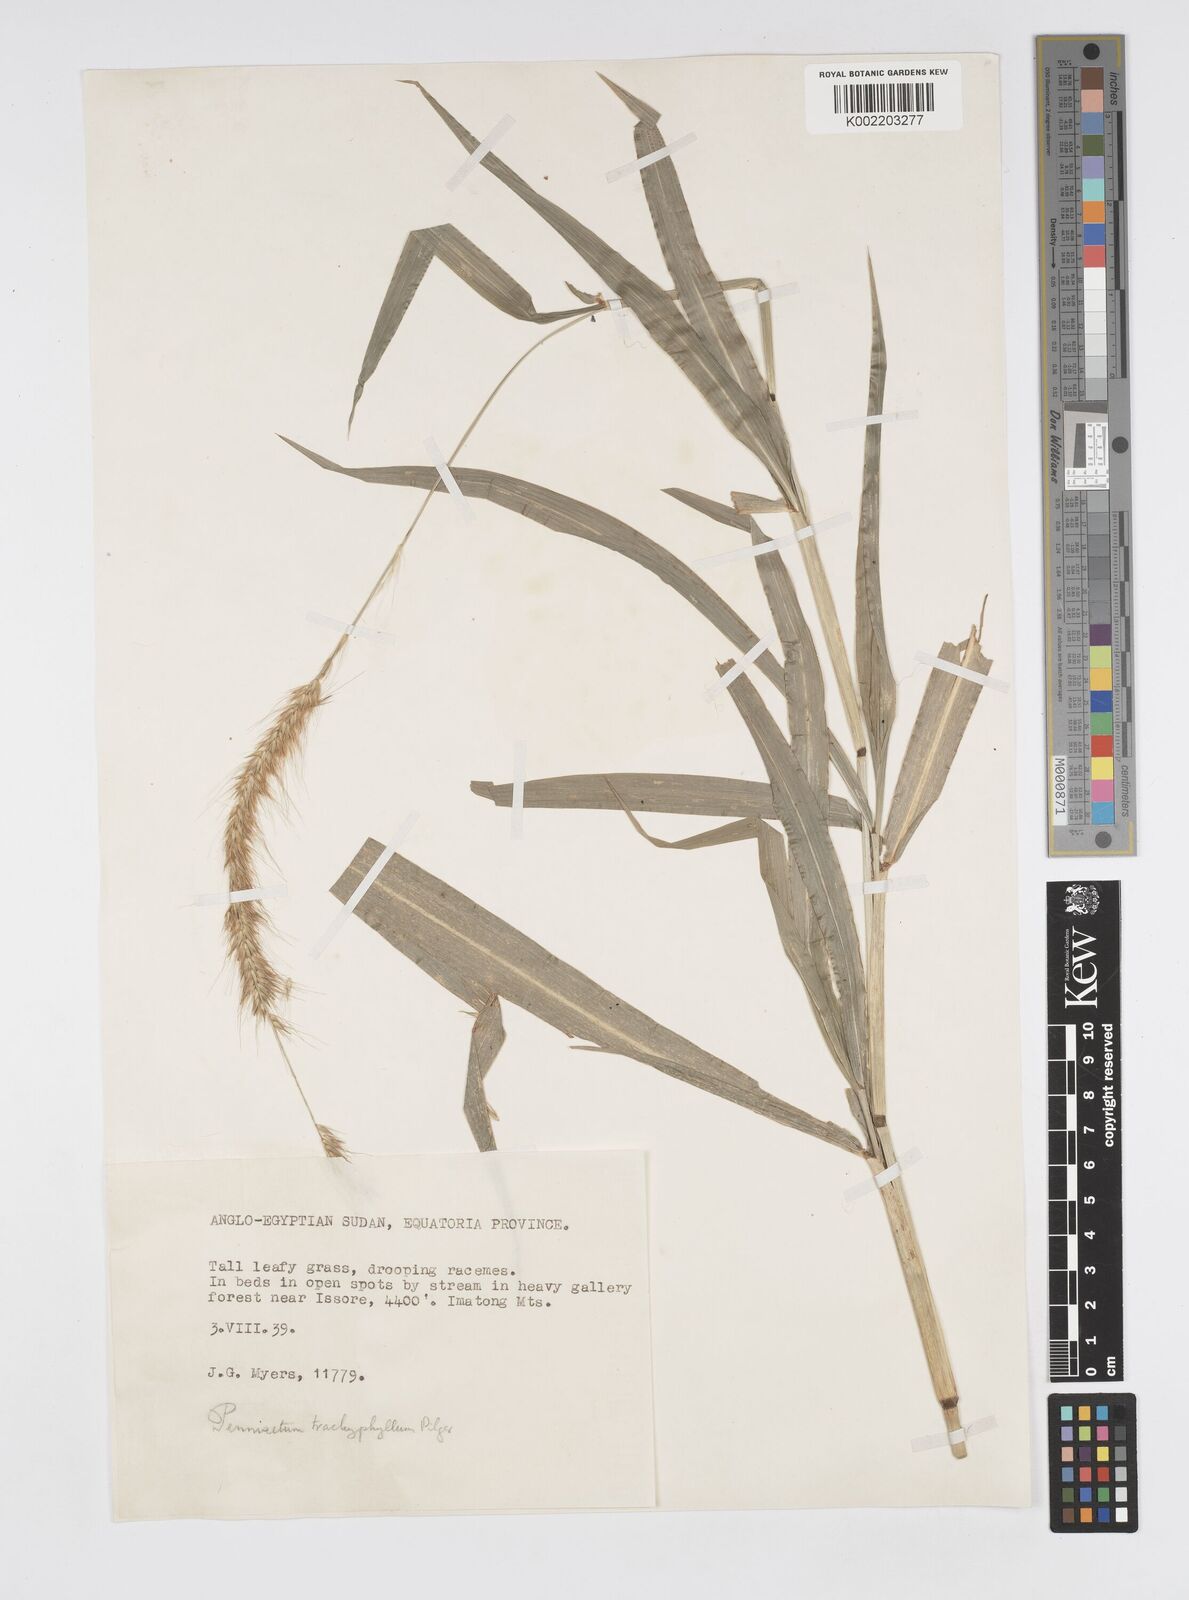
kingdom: Plantae
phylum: Tracheophyta
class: Liliopsida
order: Poales
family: Poaceae
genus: Cenchrus
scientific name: Cenchrus trachyphyllus
